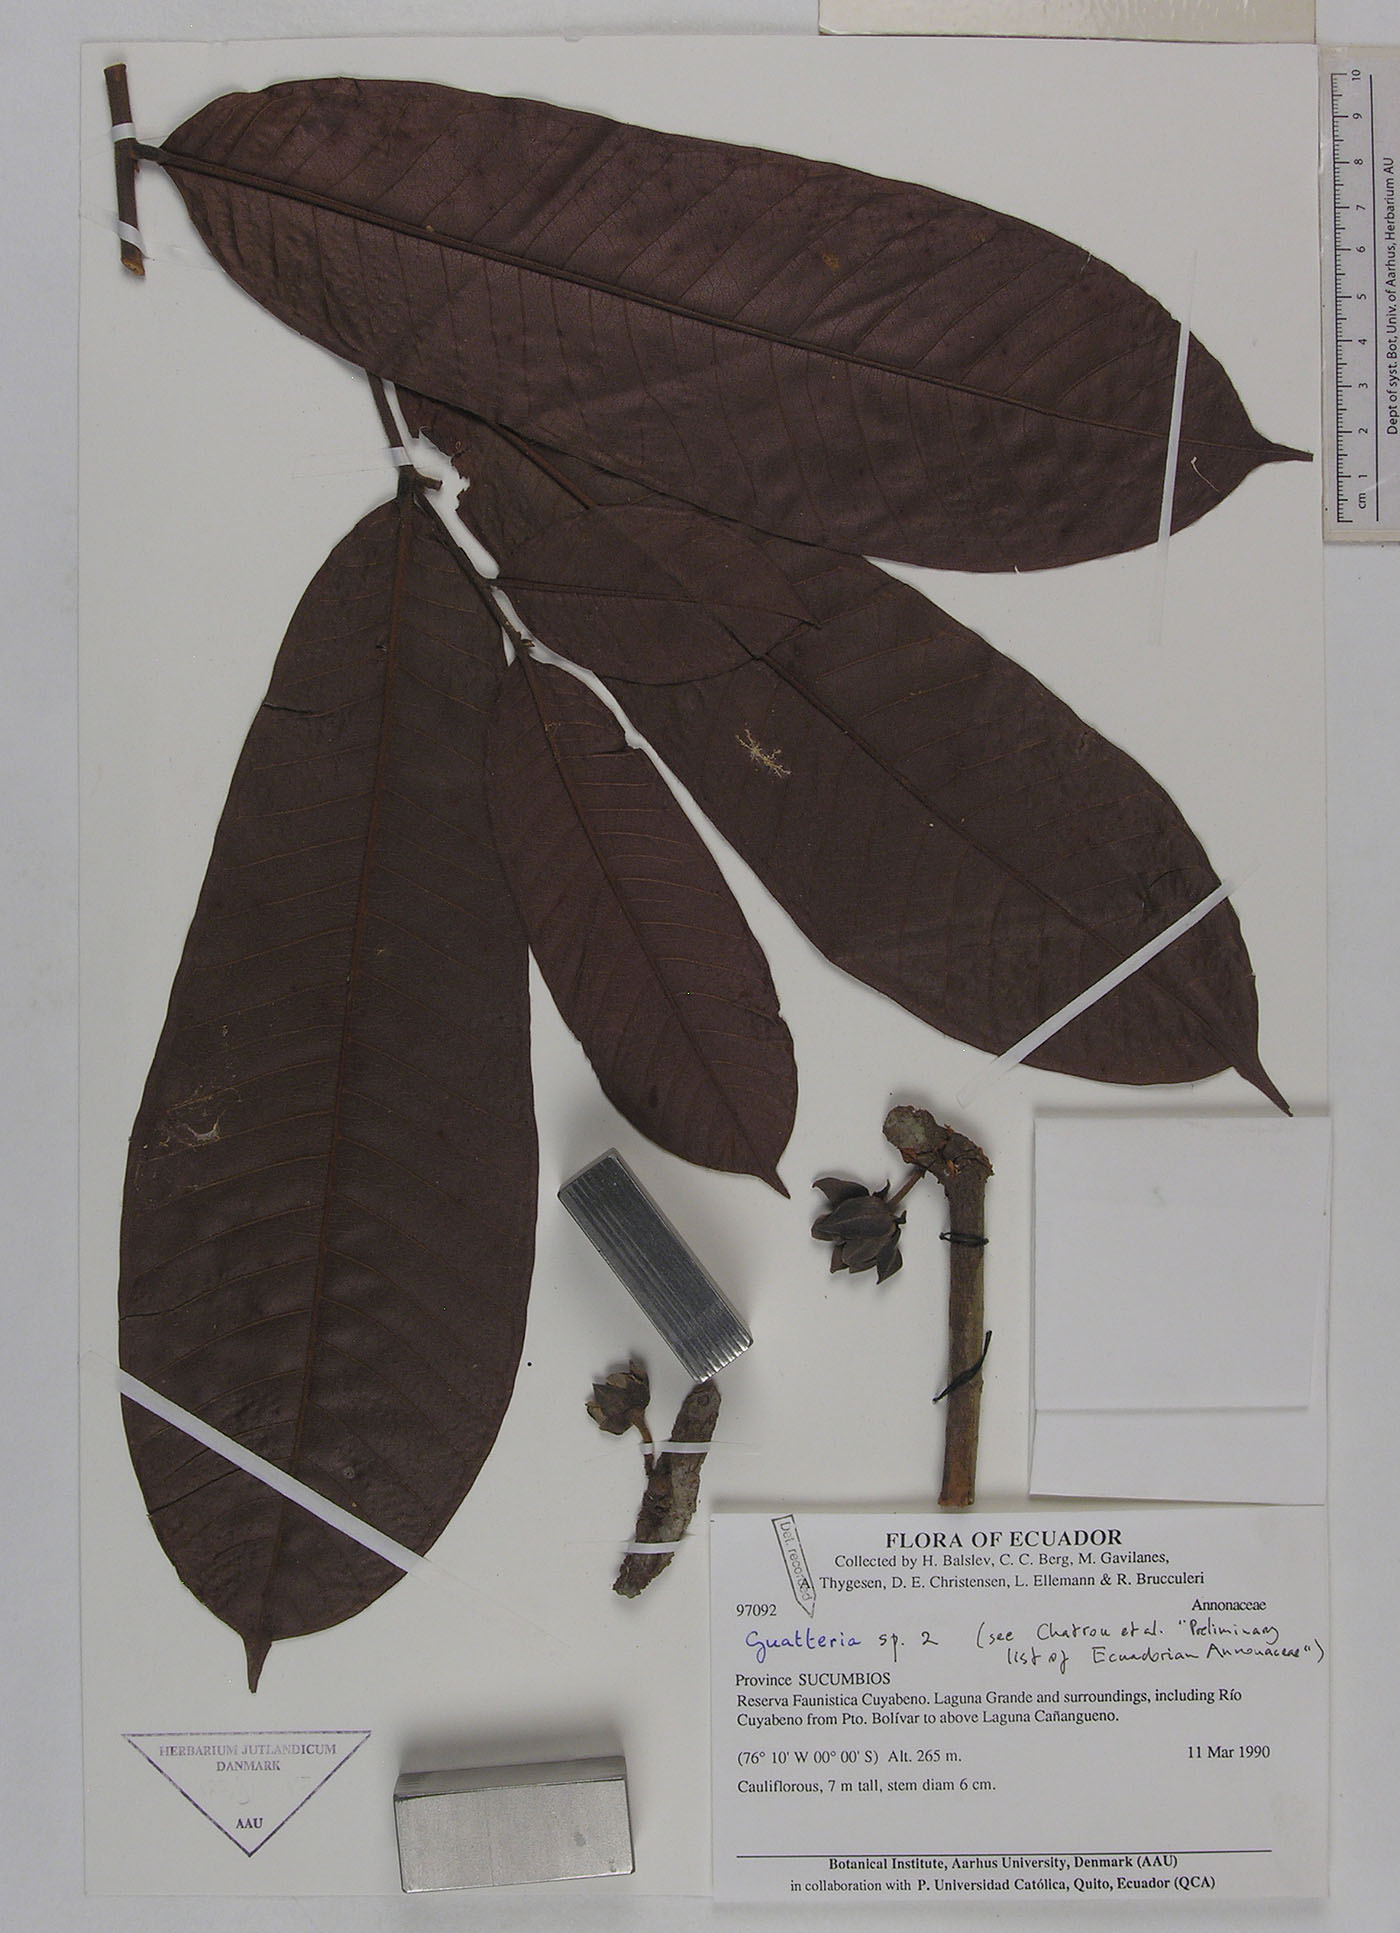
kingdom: Plantae
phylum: Tracheophyta
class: Magnoliopsida
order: Magnoliales
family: Annonaceae
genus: Guatteria
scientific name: Guatteria longicuspis
